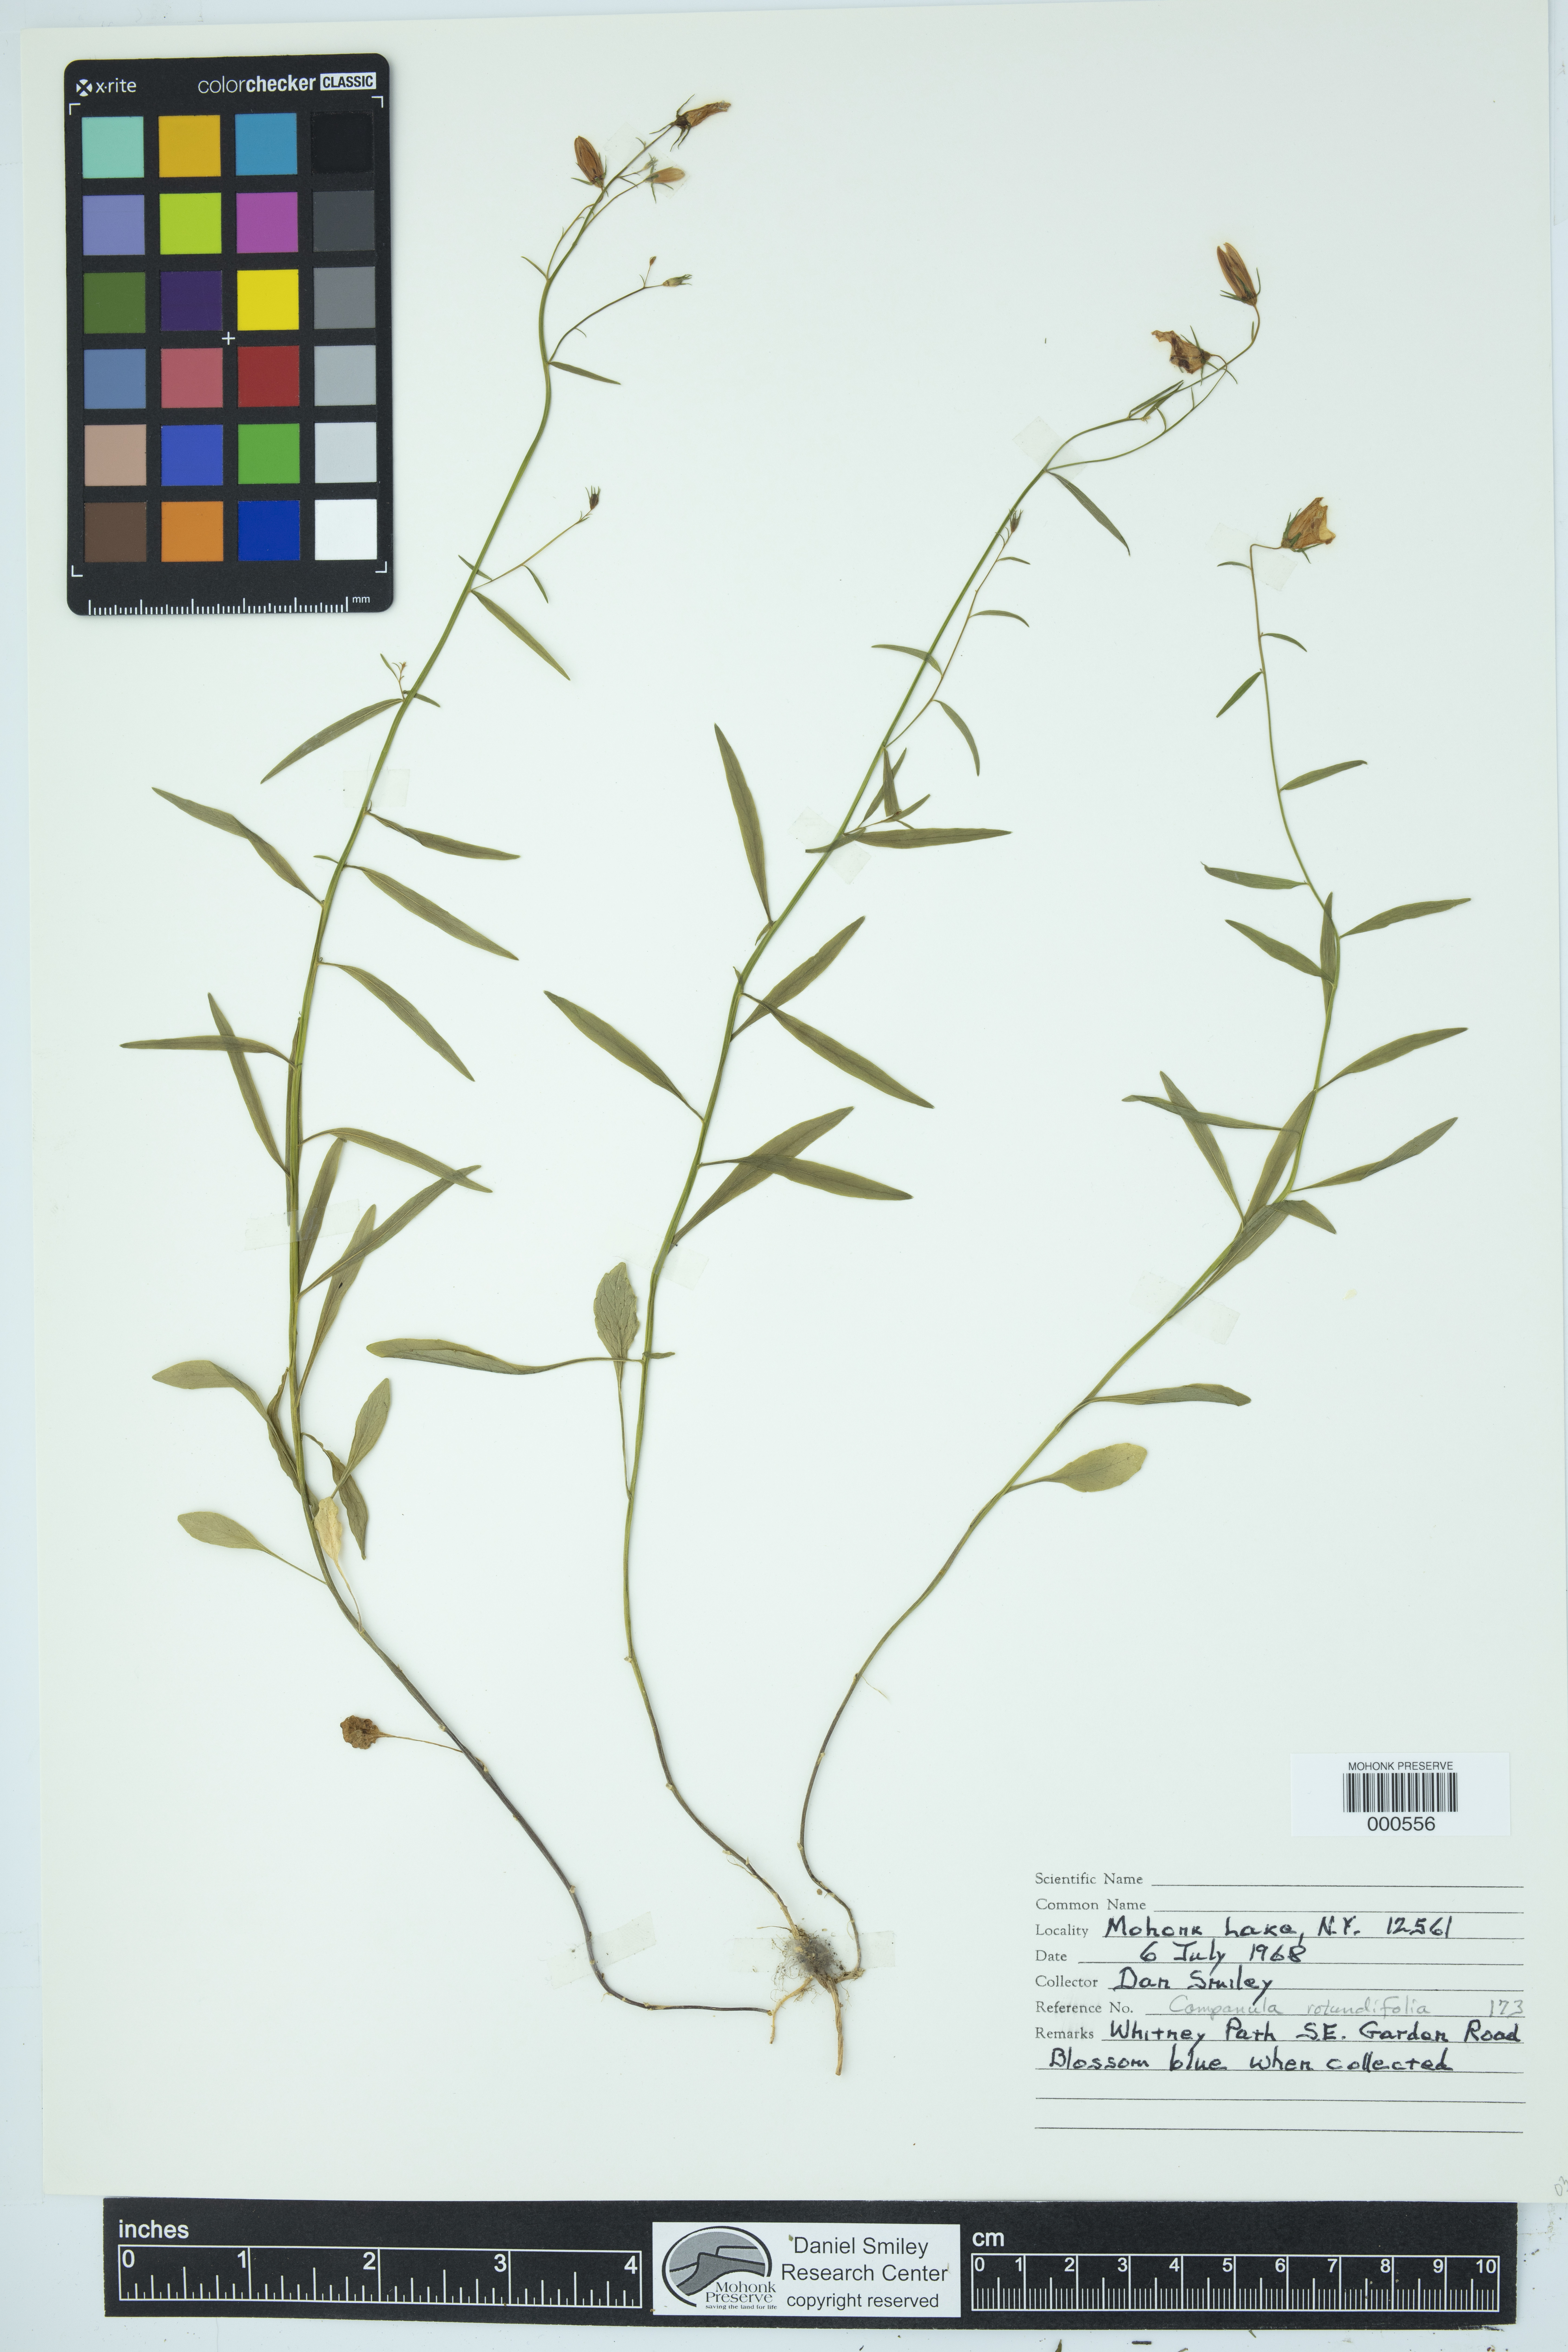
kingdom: Plantae
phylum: Tracheophyta
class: Magnoliopsida
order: Asterales
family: Campanulaceae
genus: Campanula
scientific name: Campanula rotundifolia
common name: Harebell
